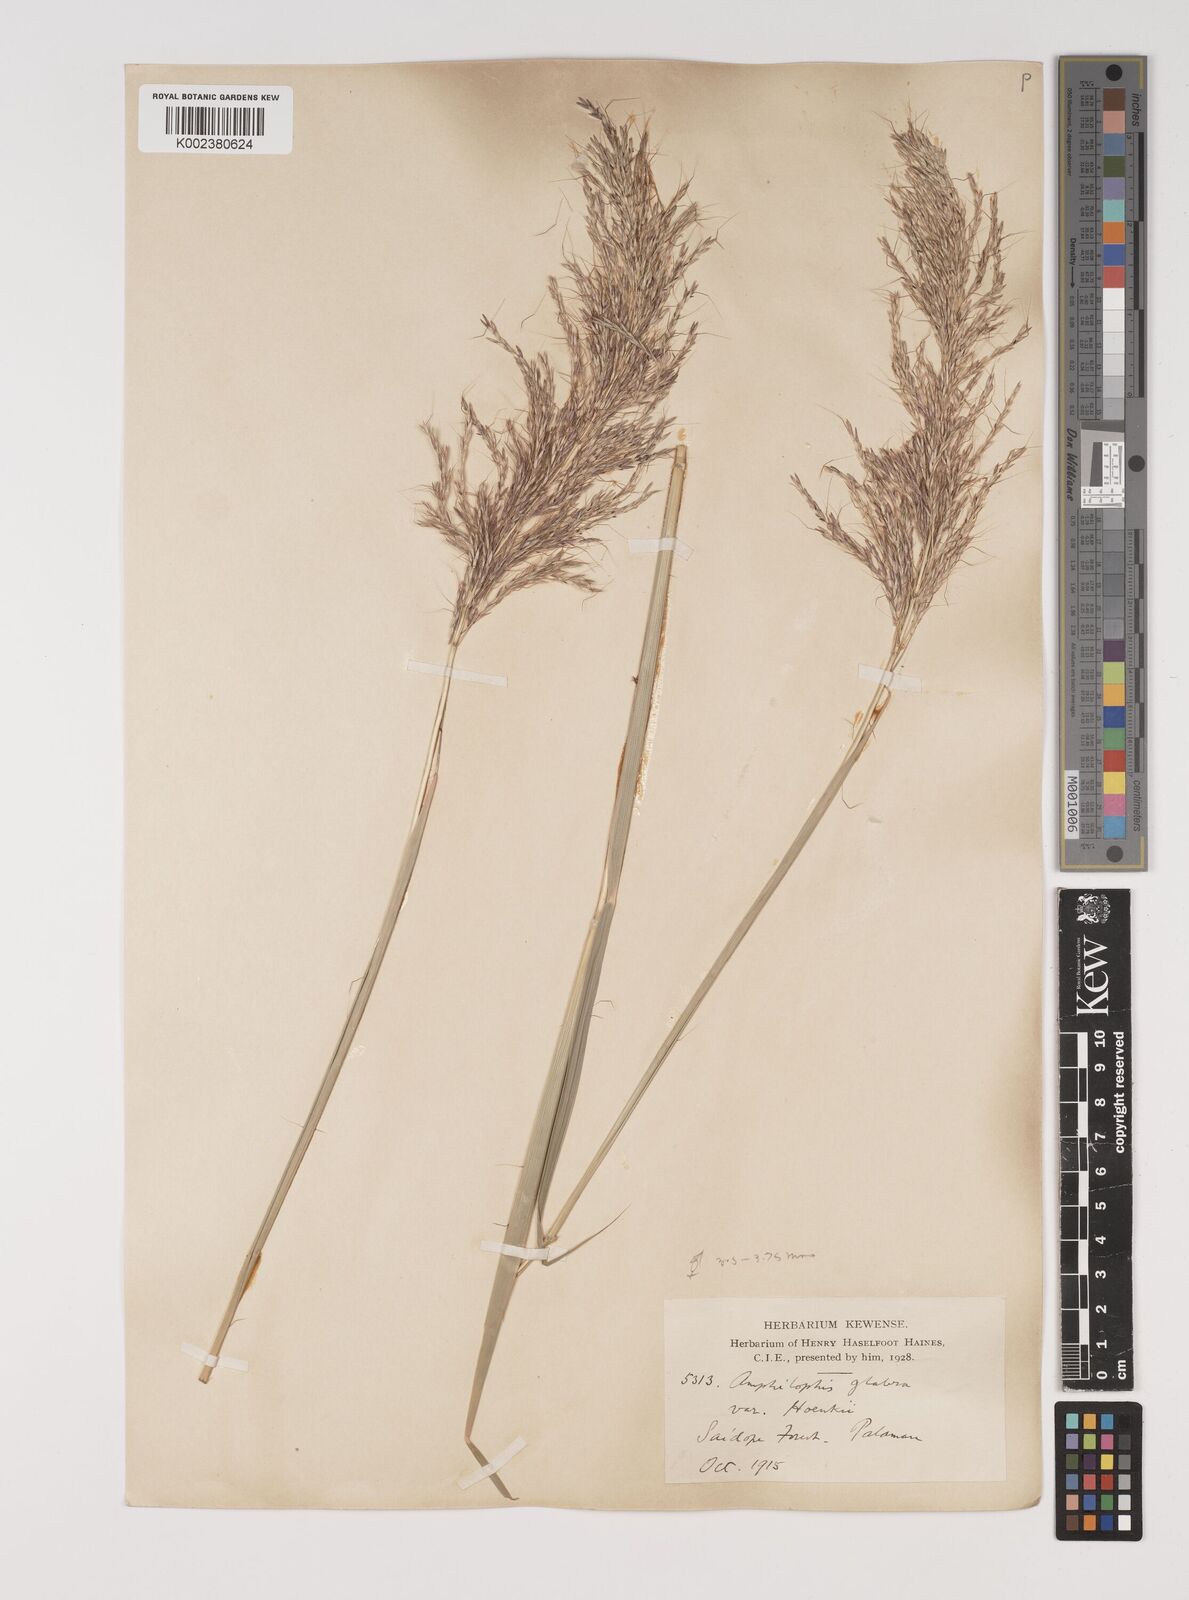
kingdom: Plantae
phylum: Tracheophyta
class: Liliopsida
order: Poales
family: Poaceae
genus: Bothriochloa
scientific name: Bothriochloa bladhii
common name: Caucasian bluestem
